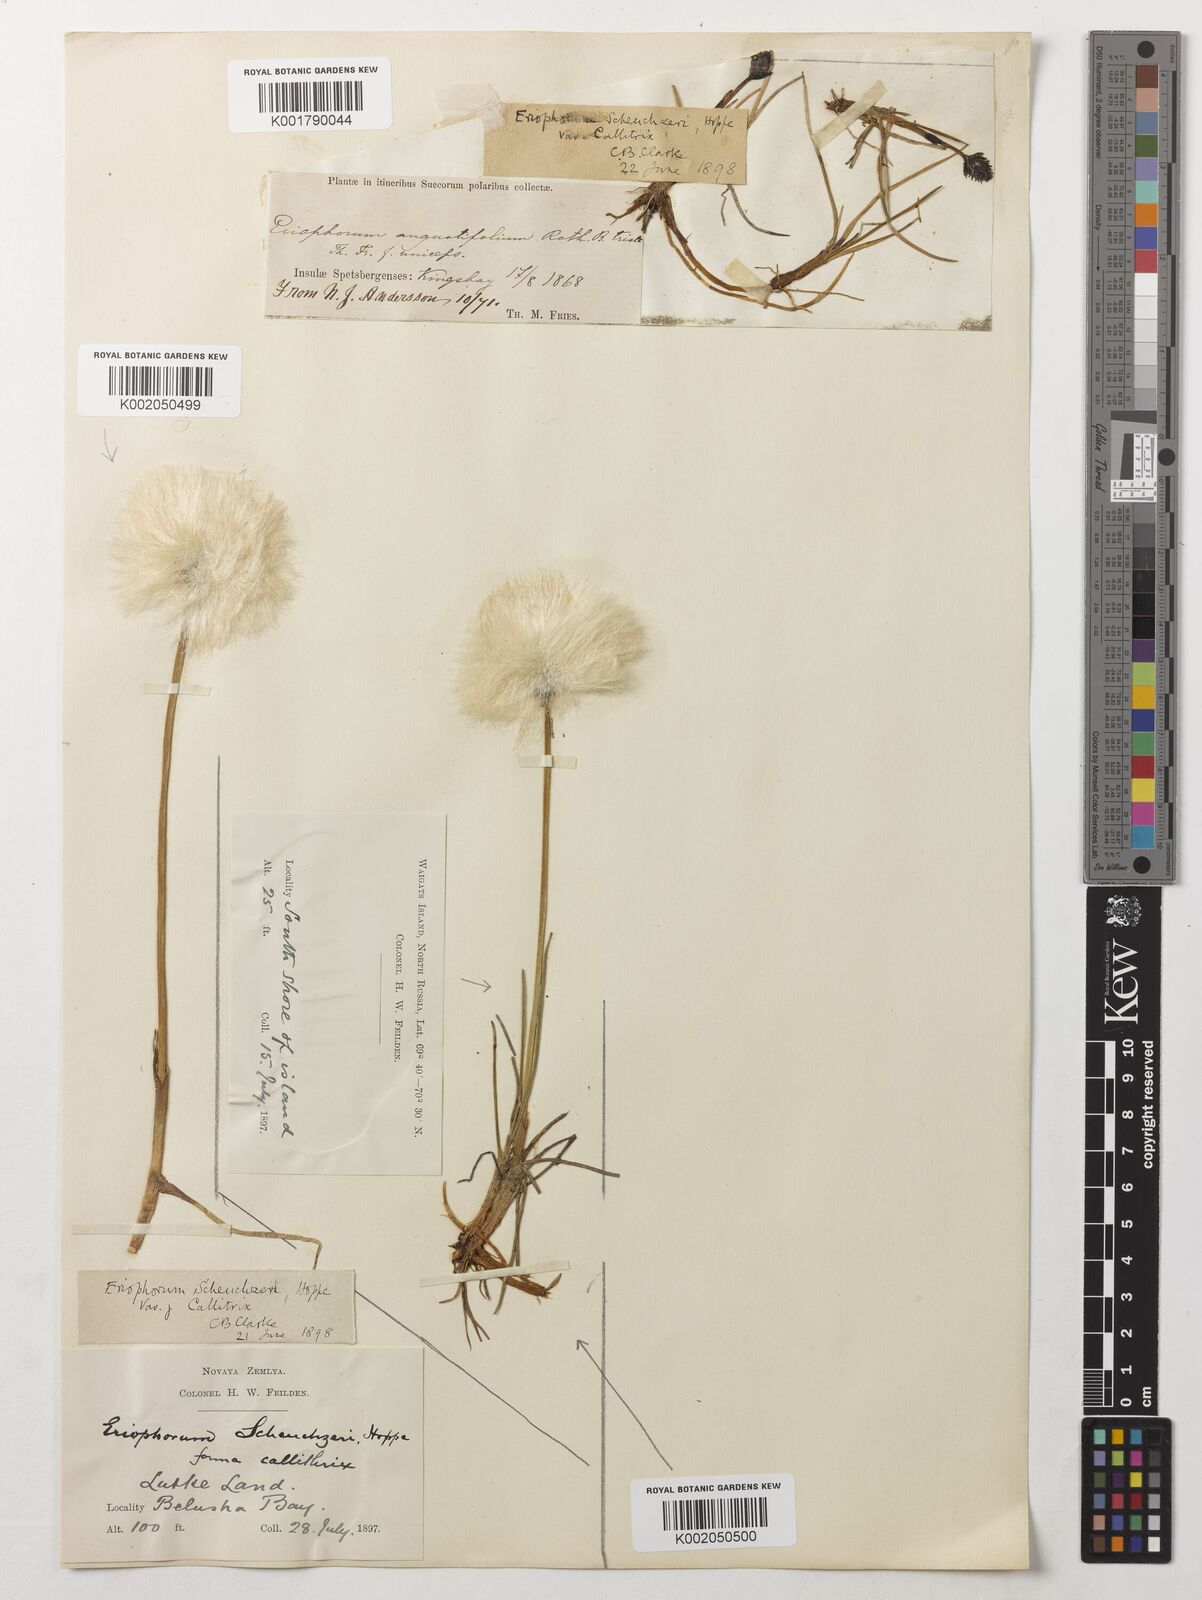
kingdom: Plantae
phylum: Tracheophyta
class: Liliopsida
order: Poales
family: Cyperaceae
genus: Eriophorum
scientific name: Eriophorum scheuchzeri
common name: Scheuchzer's cottongrass
